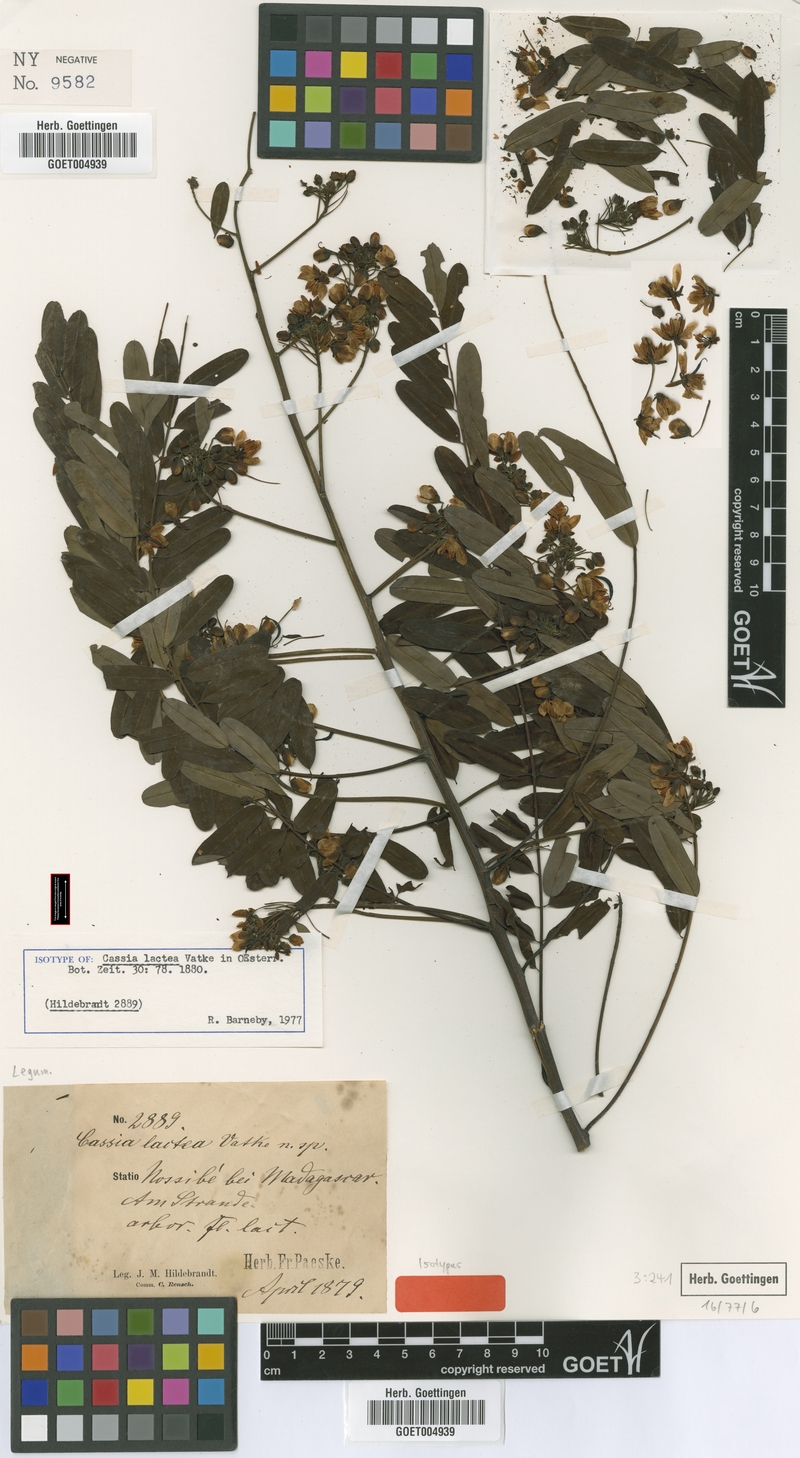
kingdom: Plantae
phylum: Tracheophyta
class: Magnoliopsida
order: Fabales
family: Fabaceae
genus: Senna
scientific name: Senna lactea
